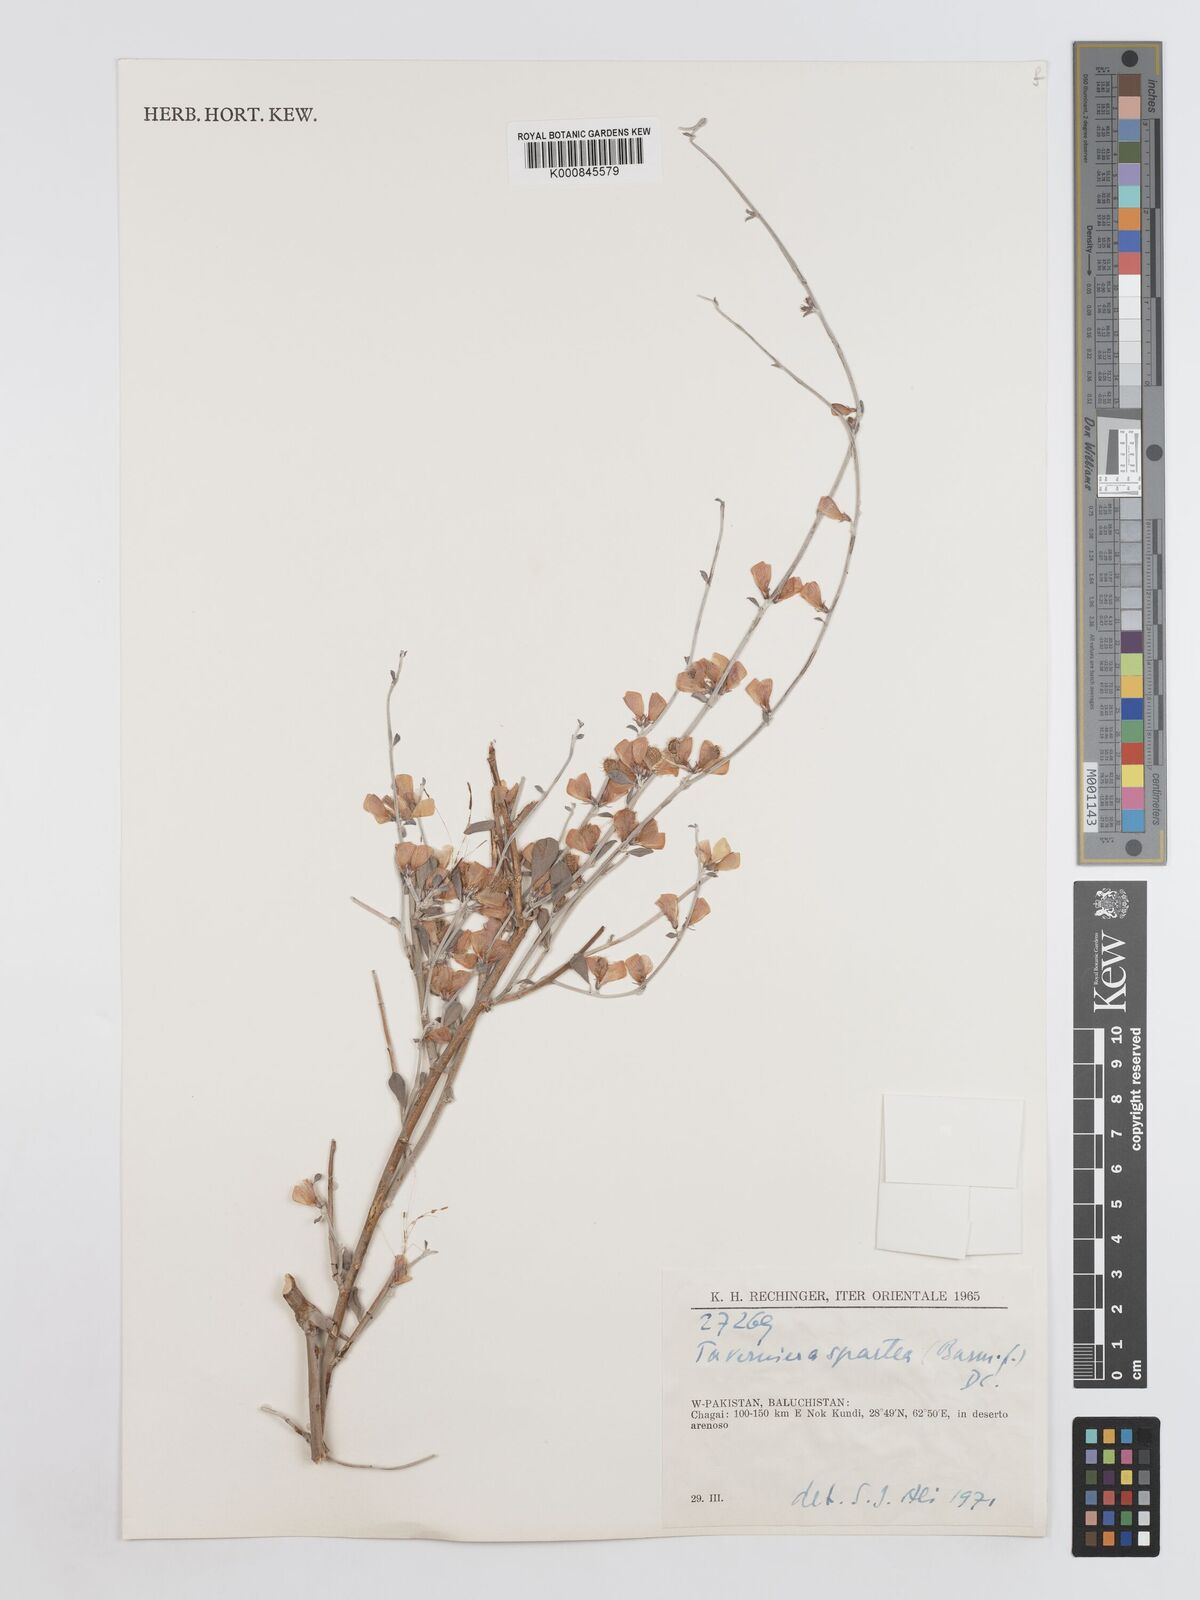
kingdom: Plantae
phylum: Tracheophyta
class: Magnoliopsida
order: Fabales
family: Fabaceae
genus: Taverniera
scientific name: Taverniera spartea
